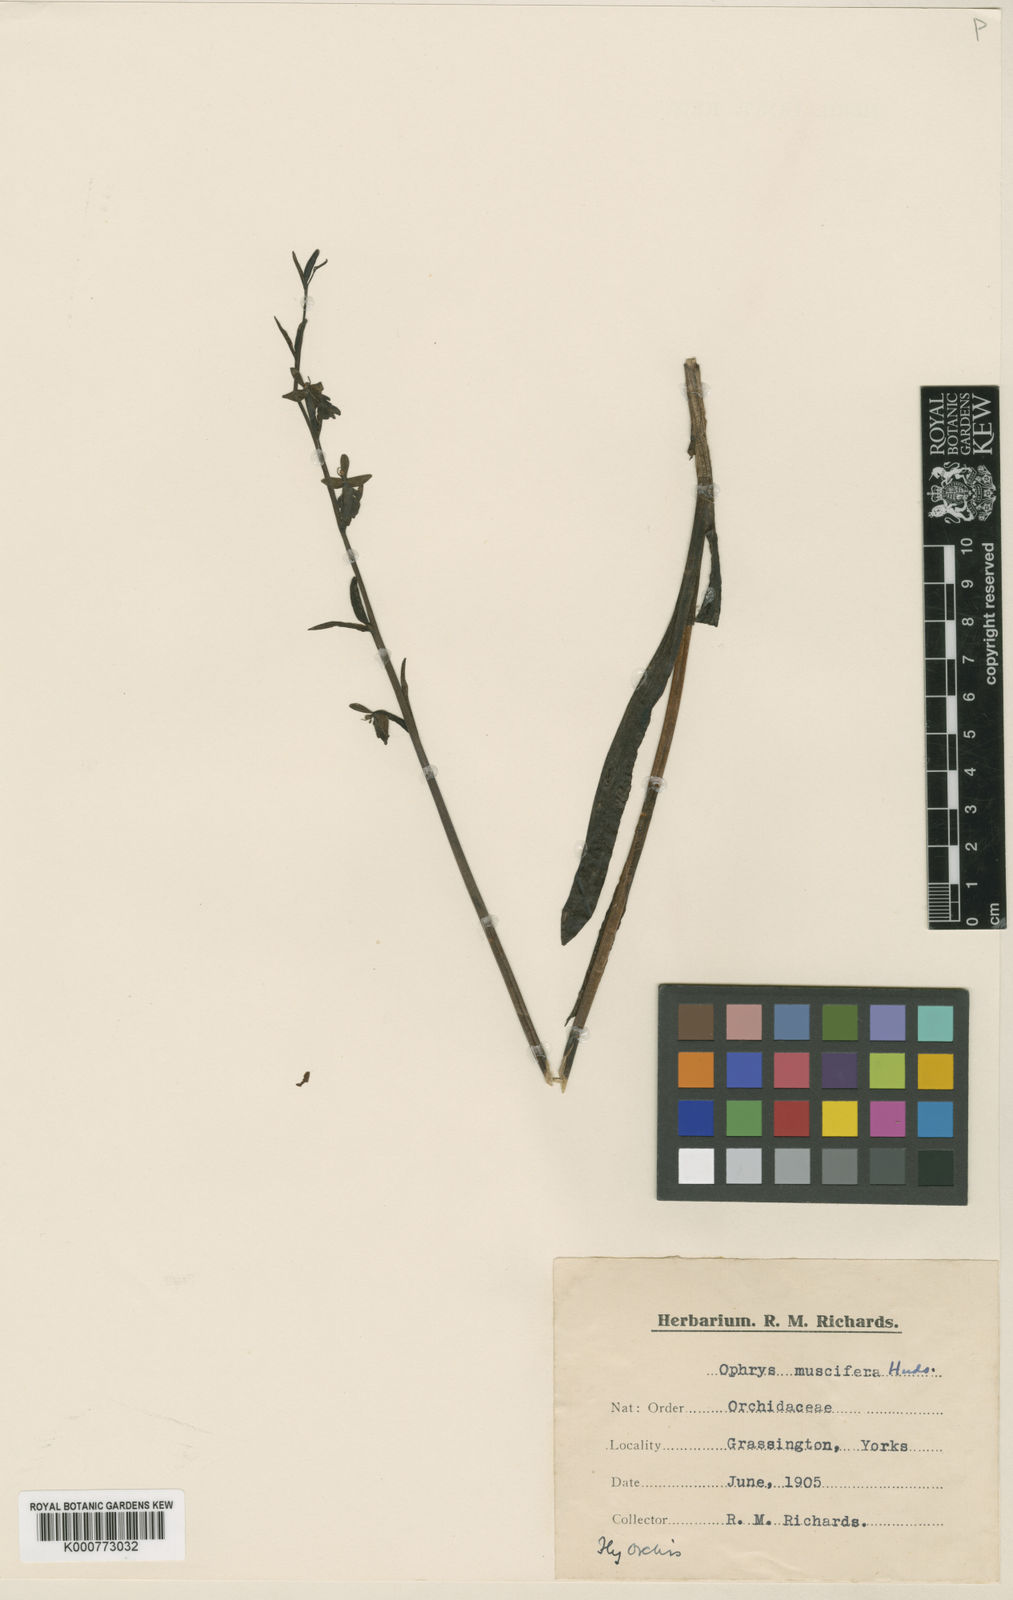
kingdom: Plantae
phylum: Tracheophyta
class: Liliopsida
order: Asparagales
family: Orchidaceae
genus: Ophrys
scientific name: Ophrys insectifera
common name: Fly orchid
